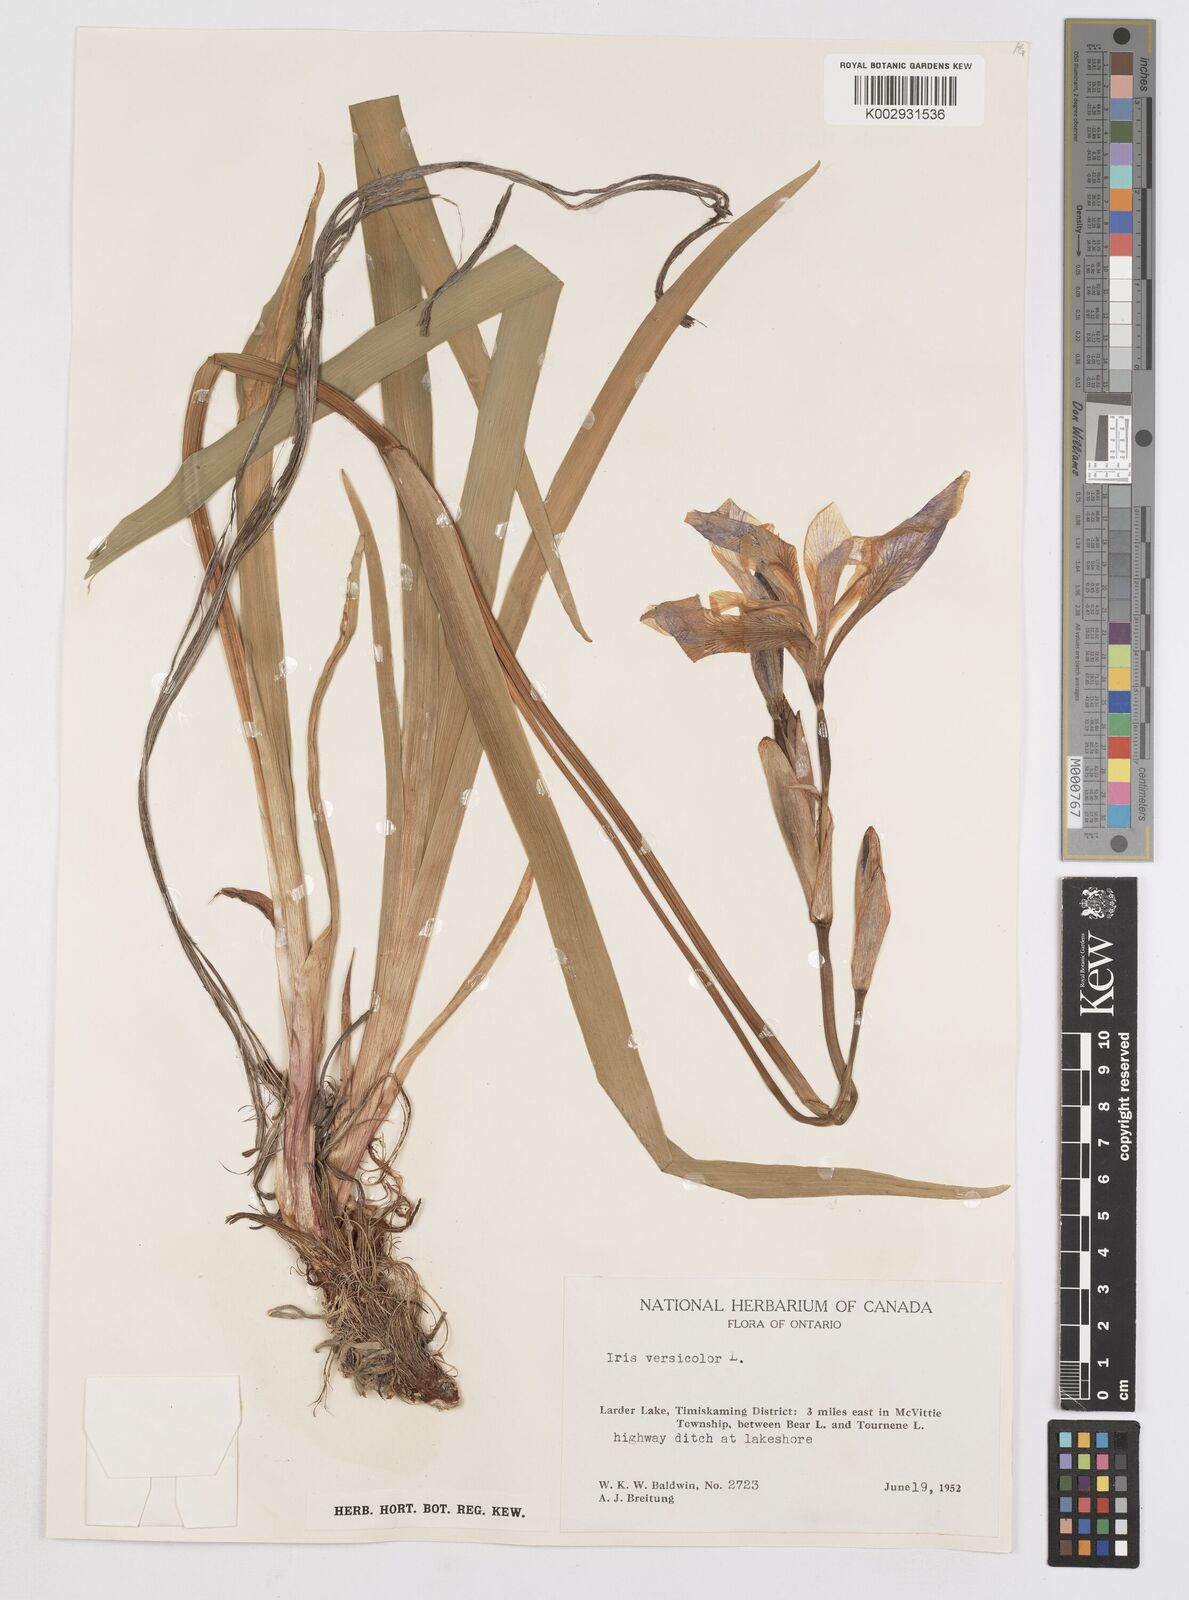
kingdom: Plantae
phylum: Tracheophyta
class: Liliopsida
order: Asparagales
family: Iridaceae
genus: Iris
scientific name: Iris versicolor
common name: Purple iris
